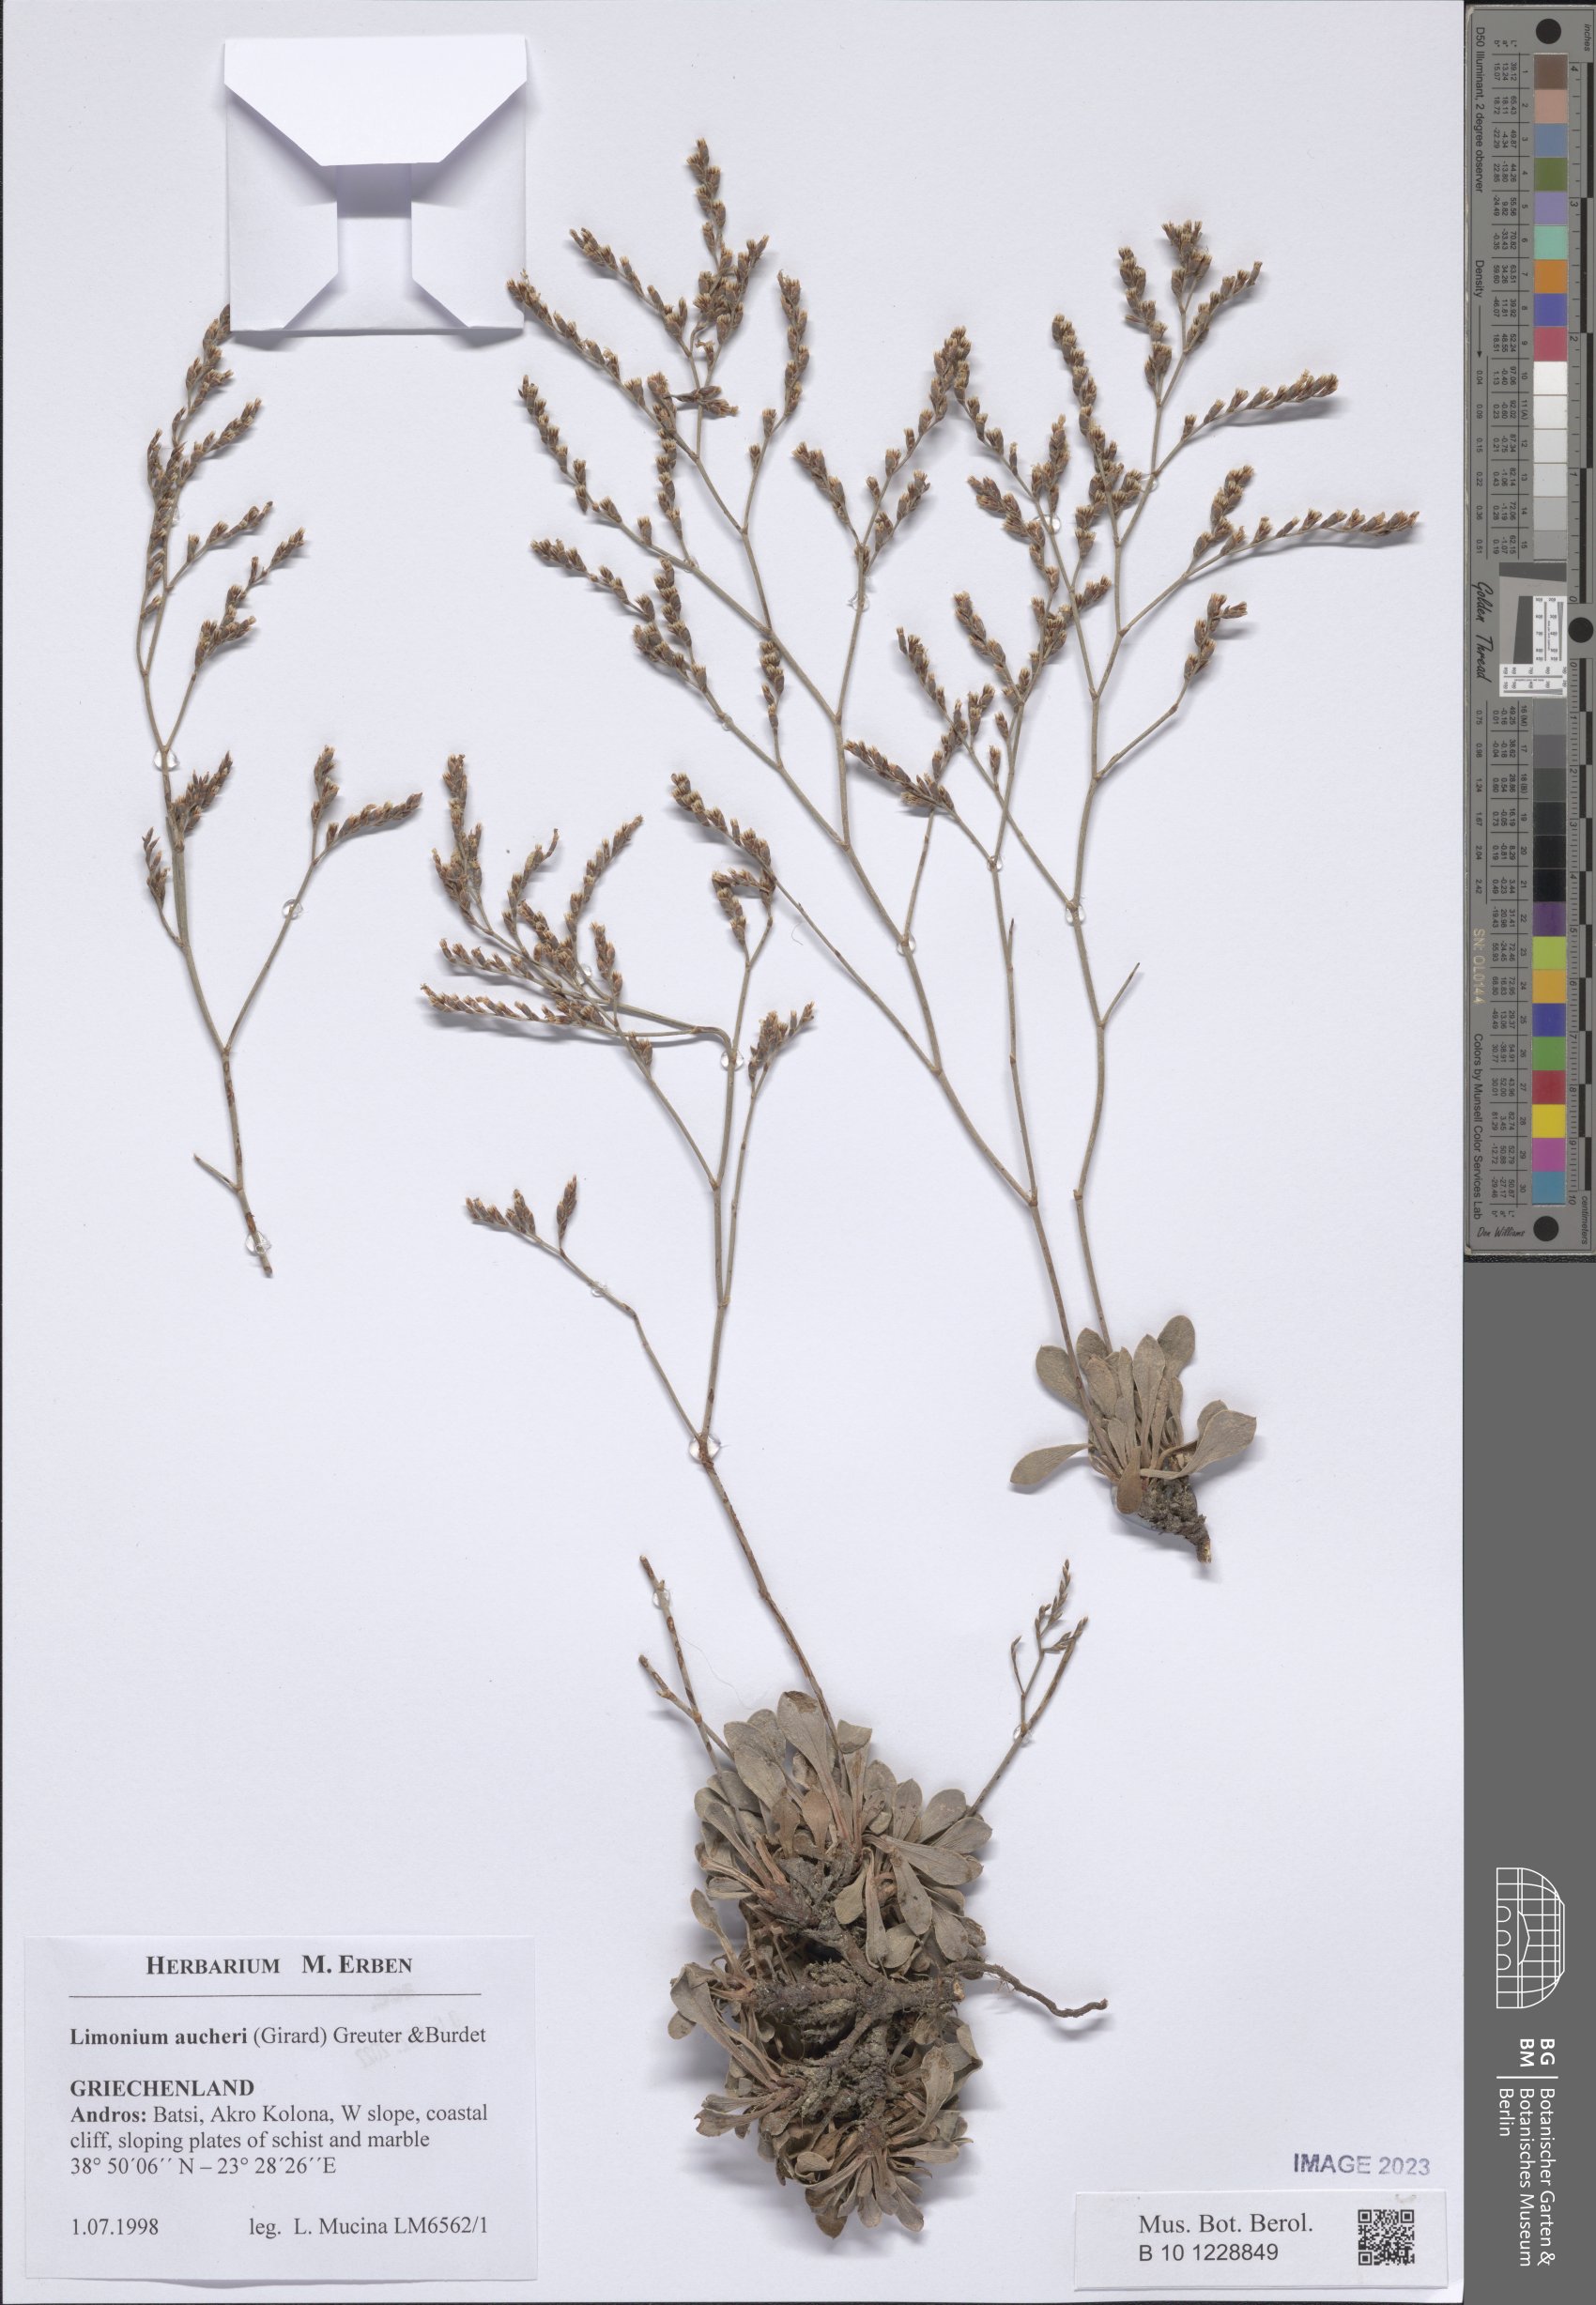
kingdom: Plantae
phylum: Tracheophyta
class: Magnoliopsida
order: Caryophyllales
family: Plumbaginaceae
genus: Limonium
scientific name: Limonium aucheri
